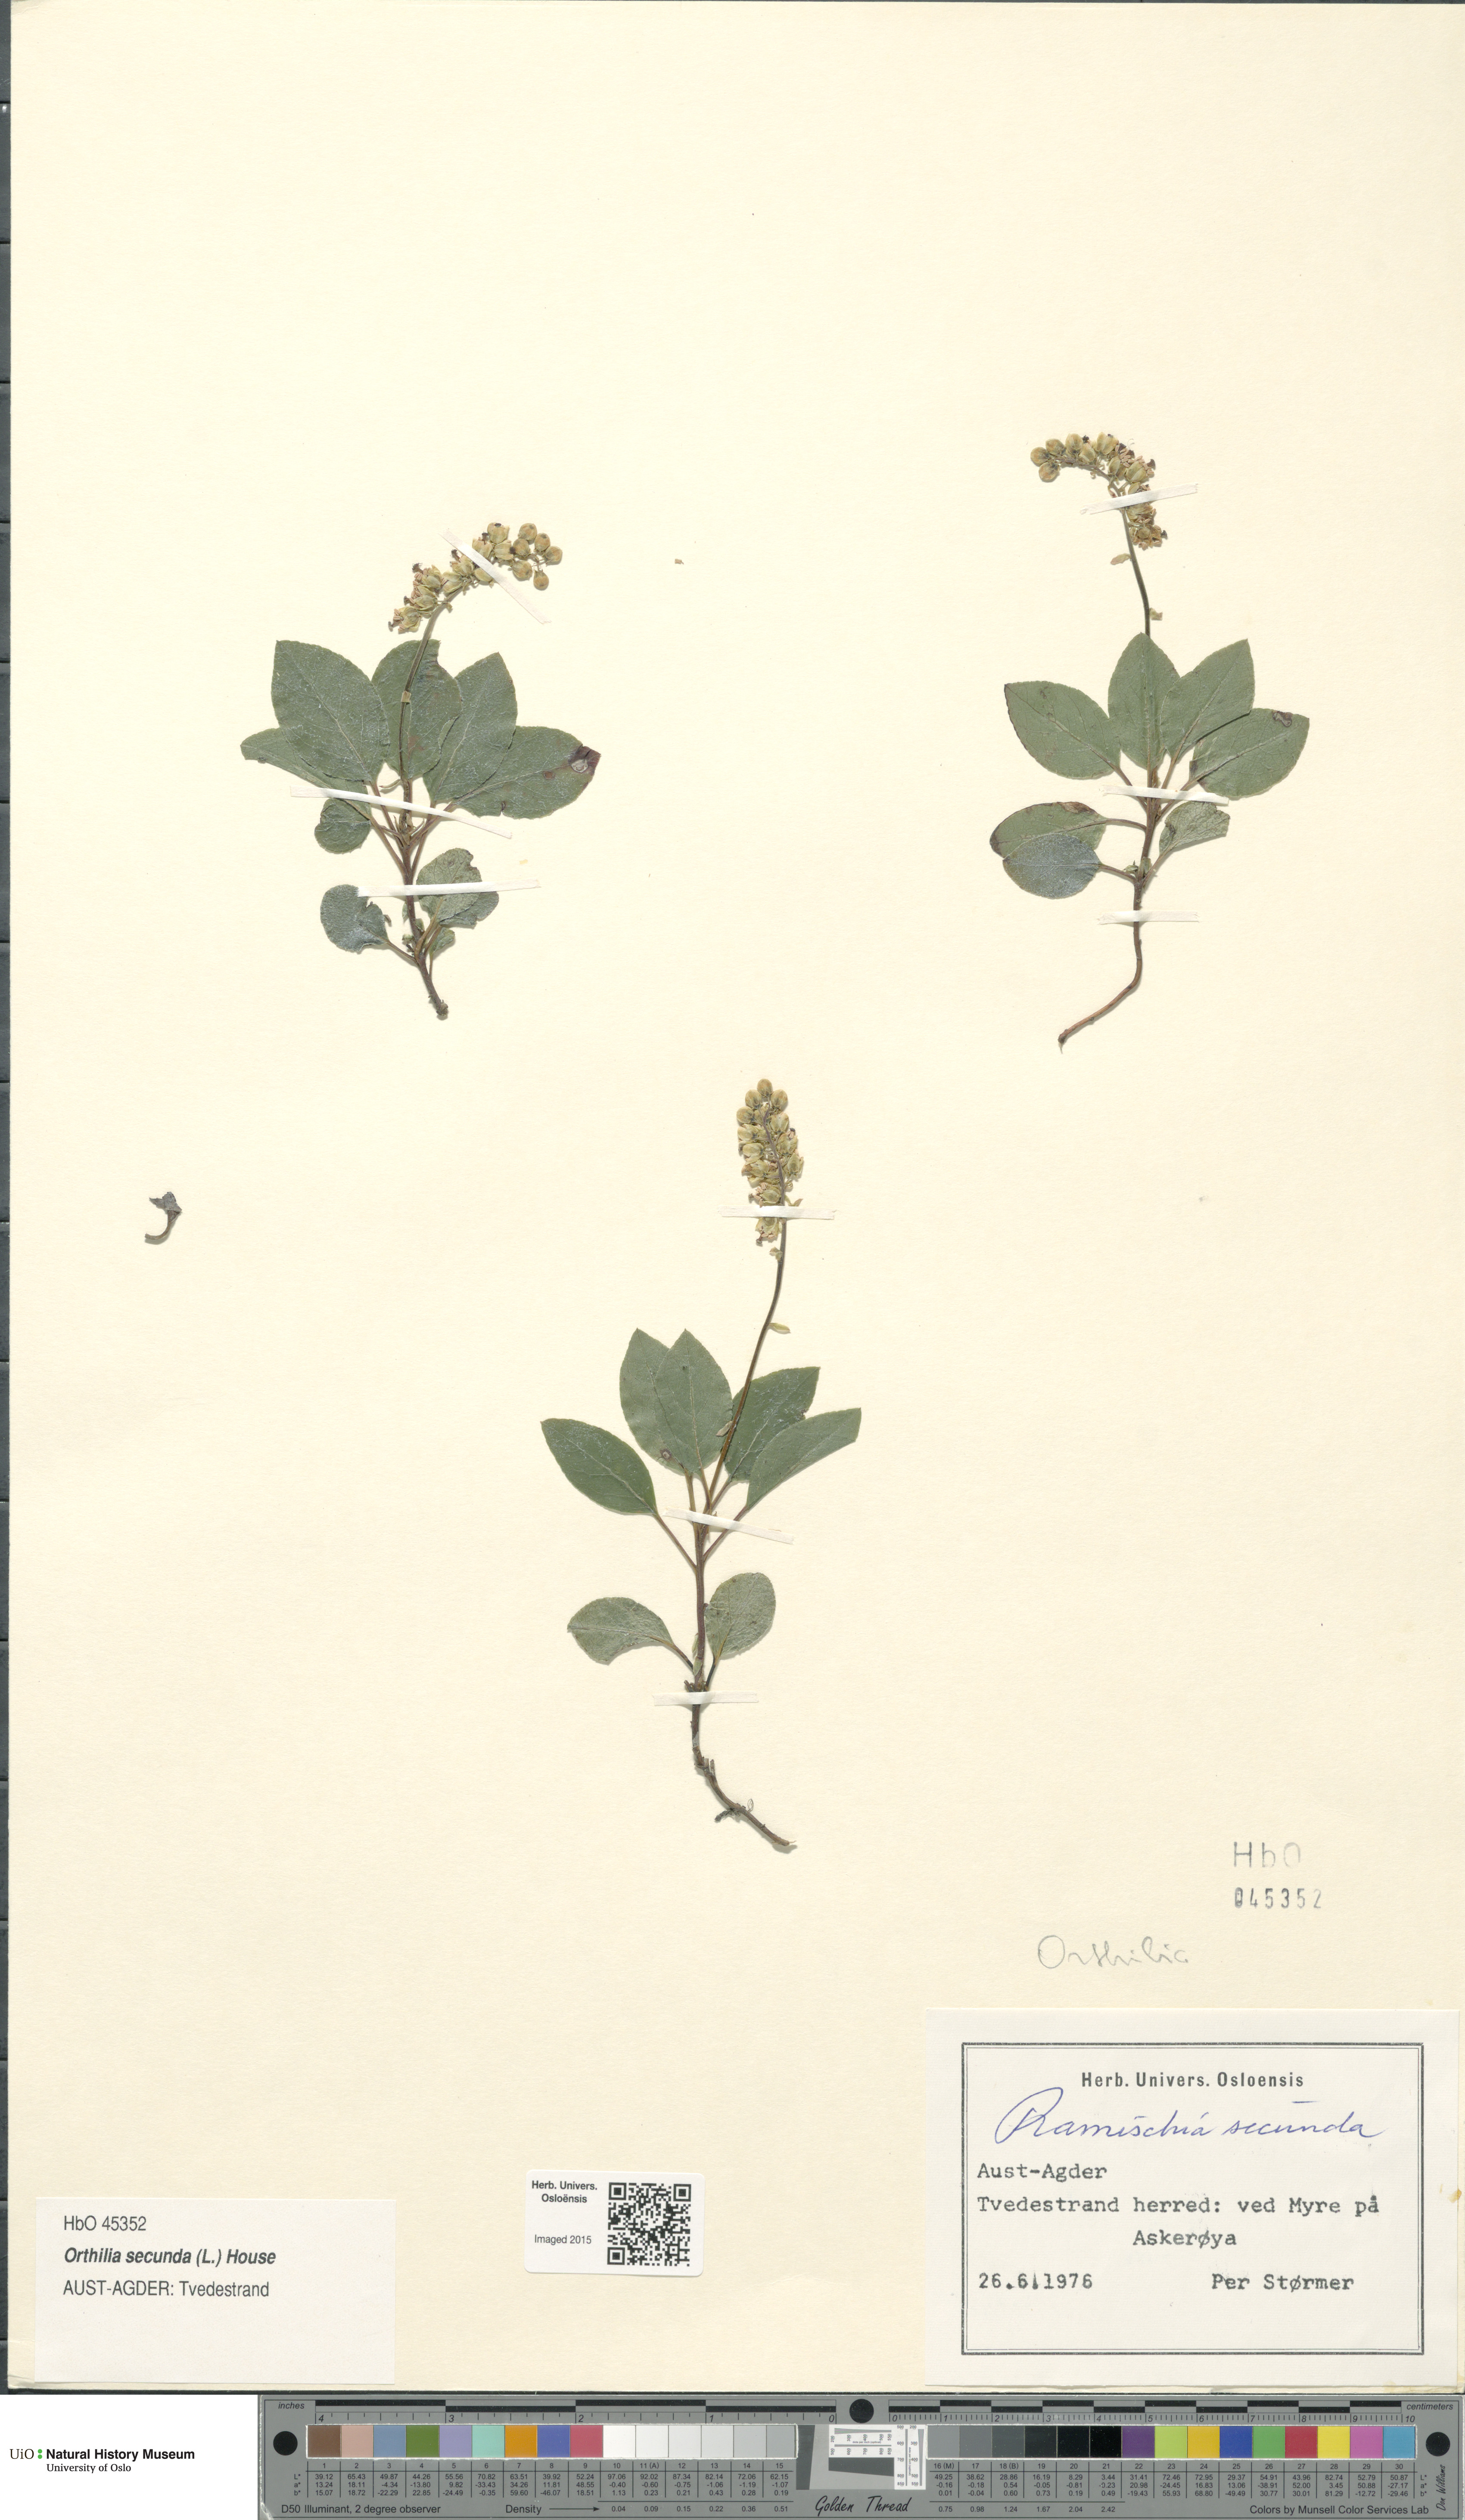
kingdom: Plantae
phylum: Tracheophyta
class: Magnoliopsida
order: Ericales
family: Ericaceae
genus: Orthilia
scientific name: Orthilia secunda
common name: One-sided orthilia
